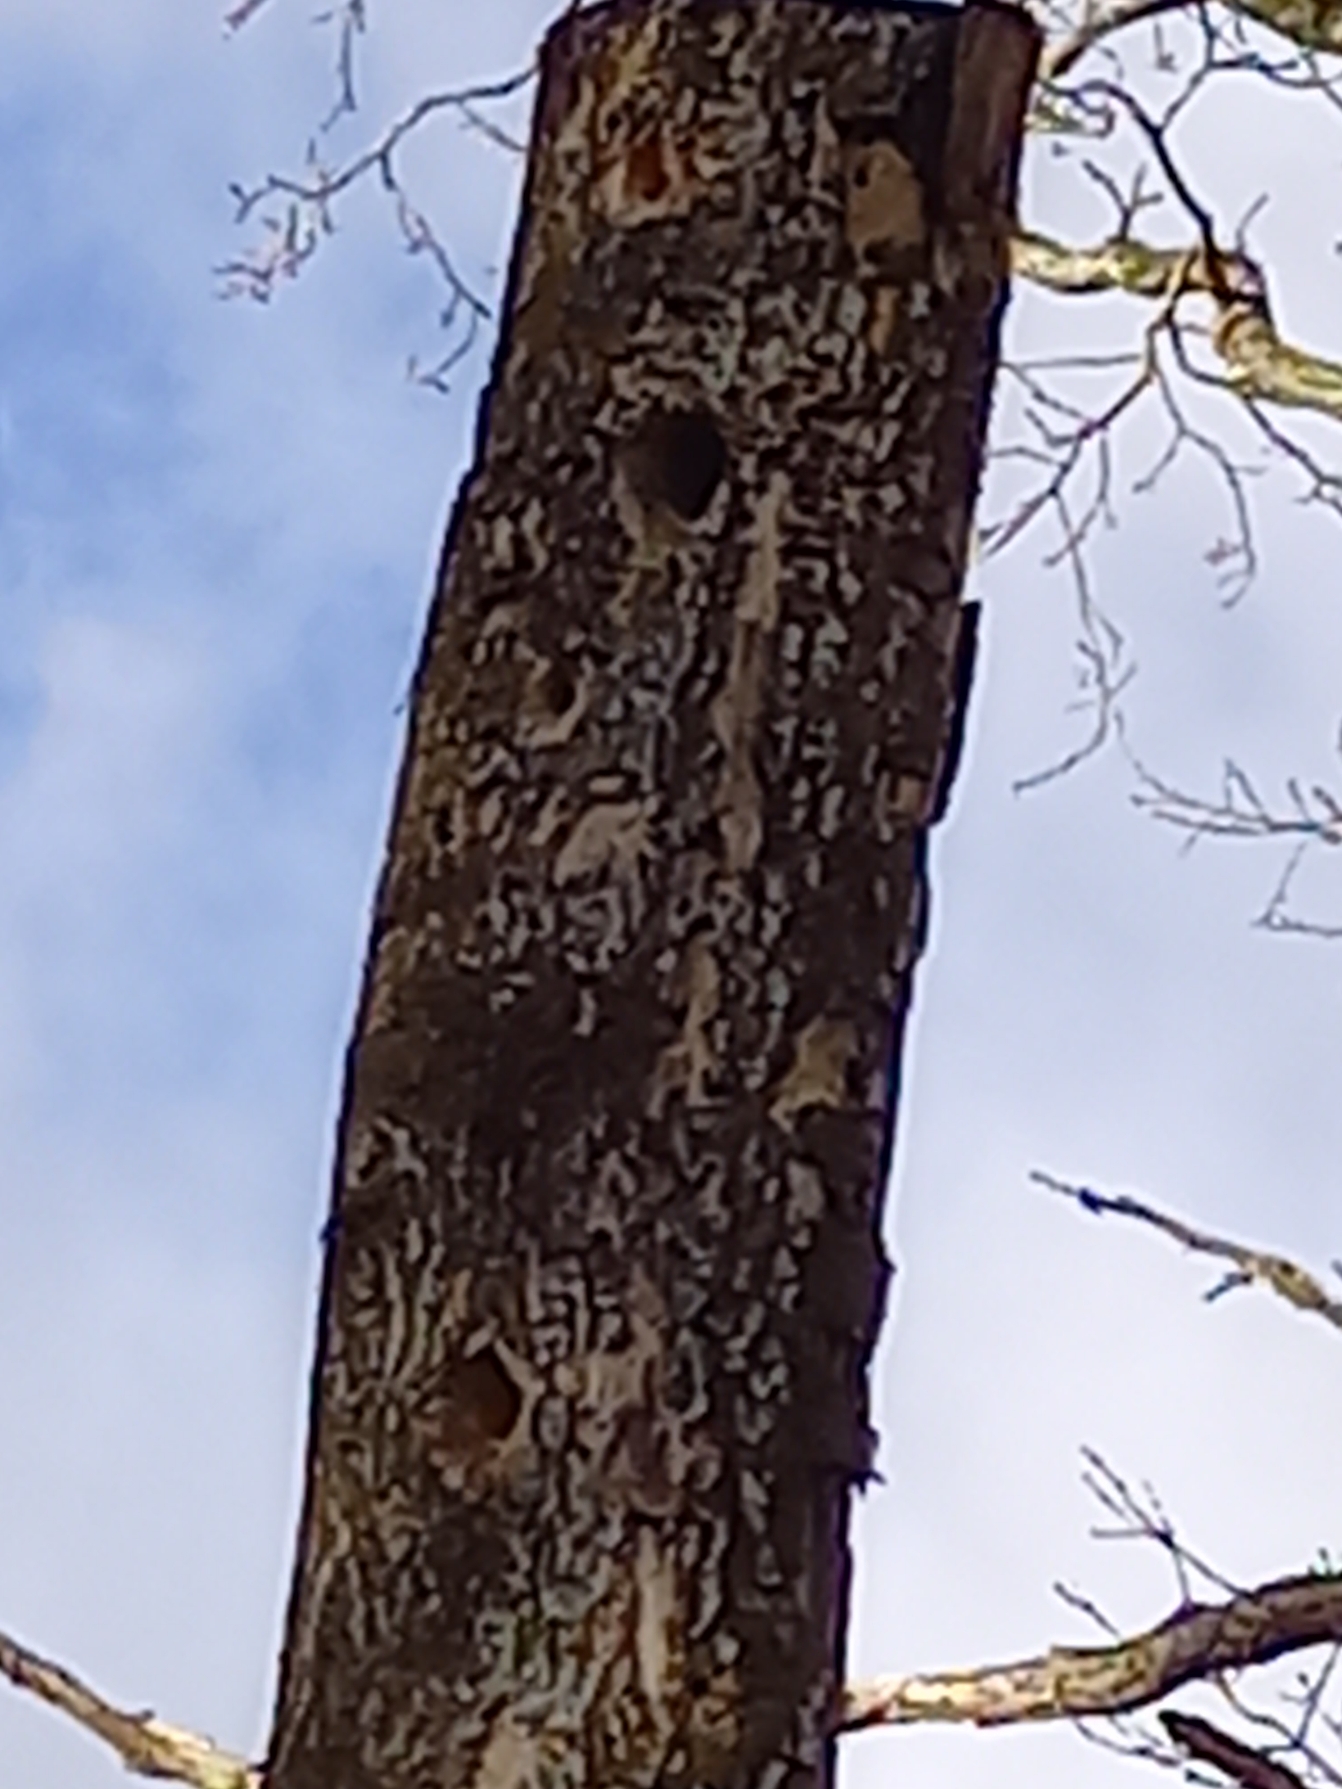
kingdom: Animalia
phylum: Chordata
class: Aves
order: Piciformes
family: Picidae
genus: Dendrocopos
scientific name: Dendrocopos major
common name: Stor flagspætte
